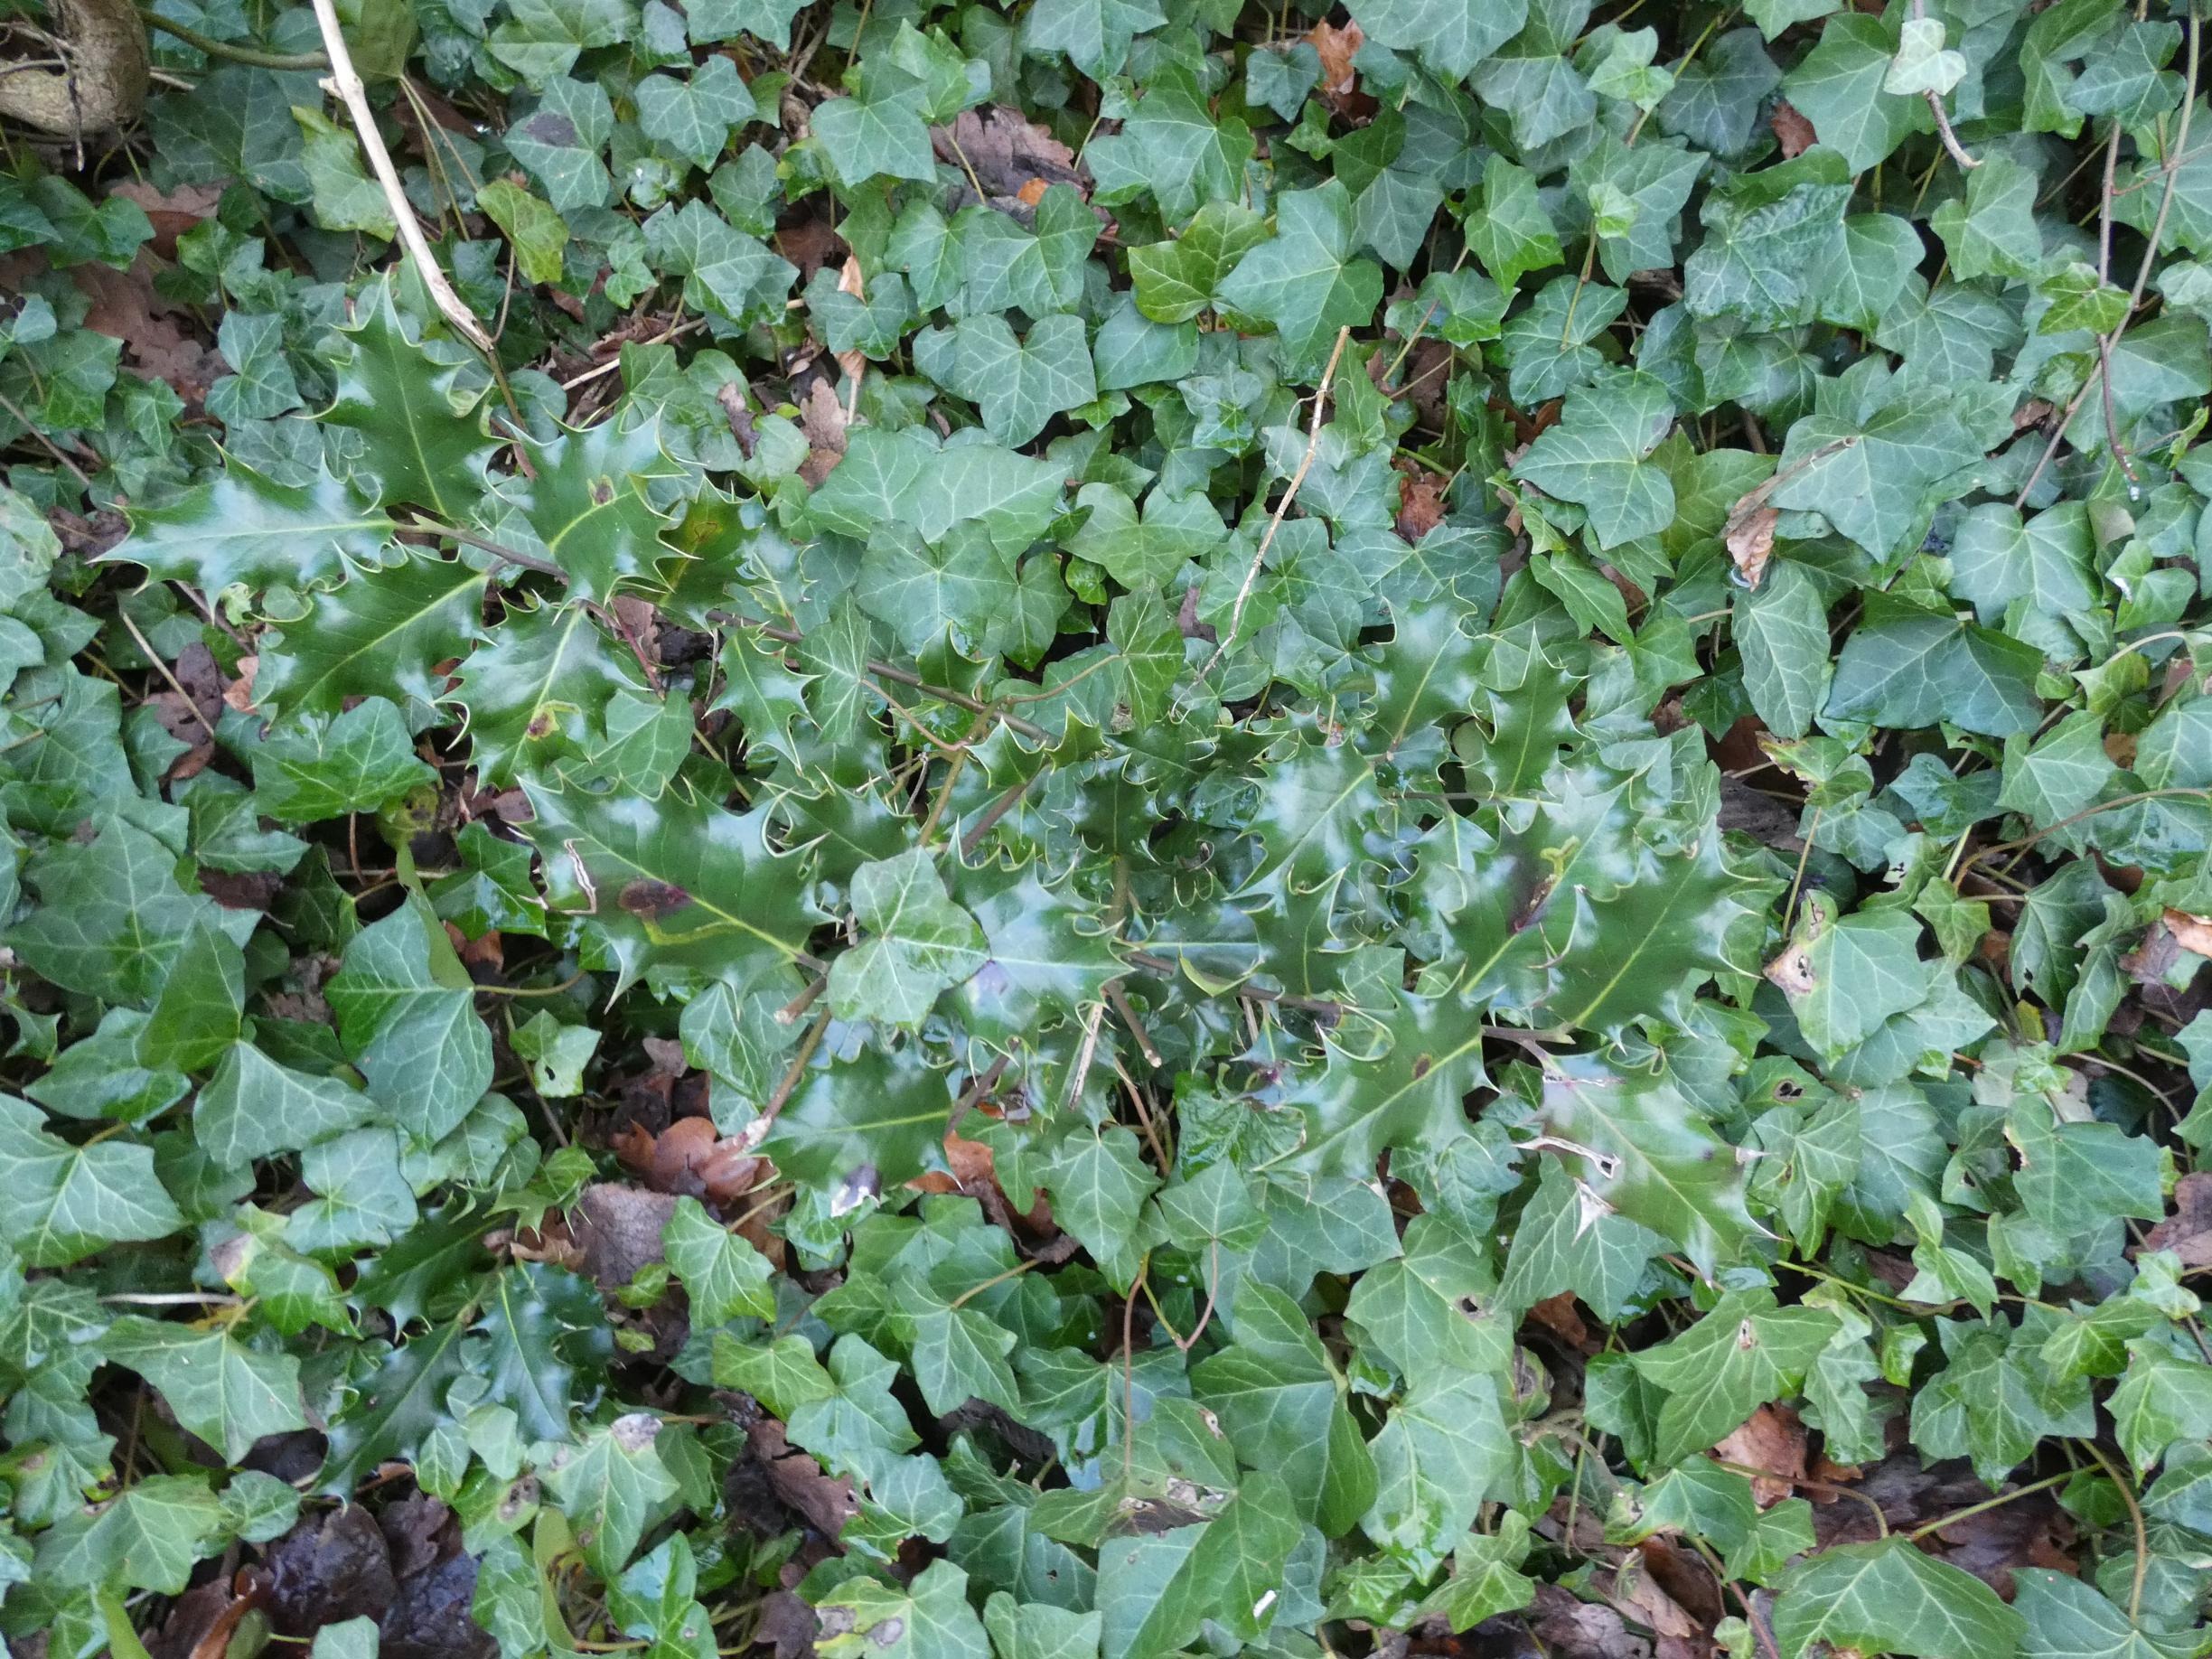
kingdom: Plantae
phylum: Tracheophyta
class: Magnoliopsida
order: Aquifoliales
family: Aquifoliaceae
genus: Ilex
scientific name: Ilex aquifolium
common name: Kristtorn
